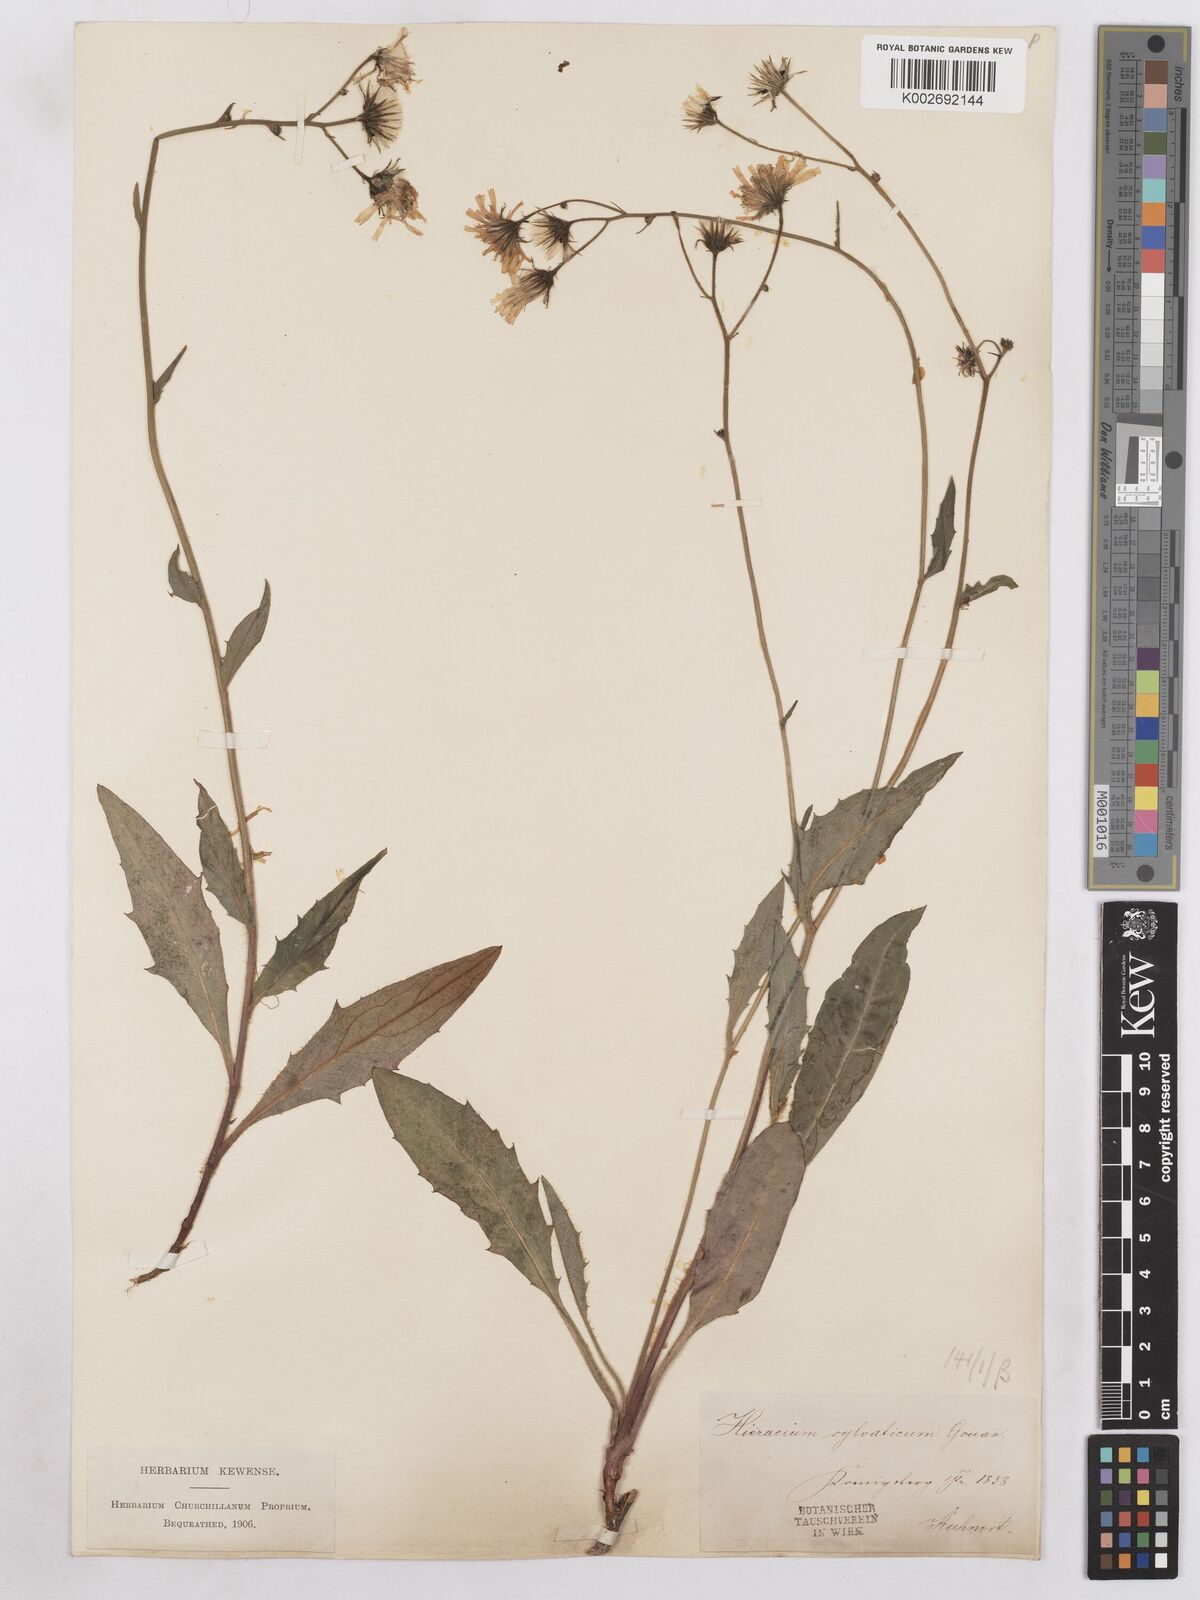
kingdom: Plantae
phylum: Tracheophyta
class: Magnoliopsida
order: Asterales
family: Asteraceae
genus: Hieracium
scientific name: Hieracium diaphanoides
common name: Fine-bracted hawkweed
